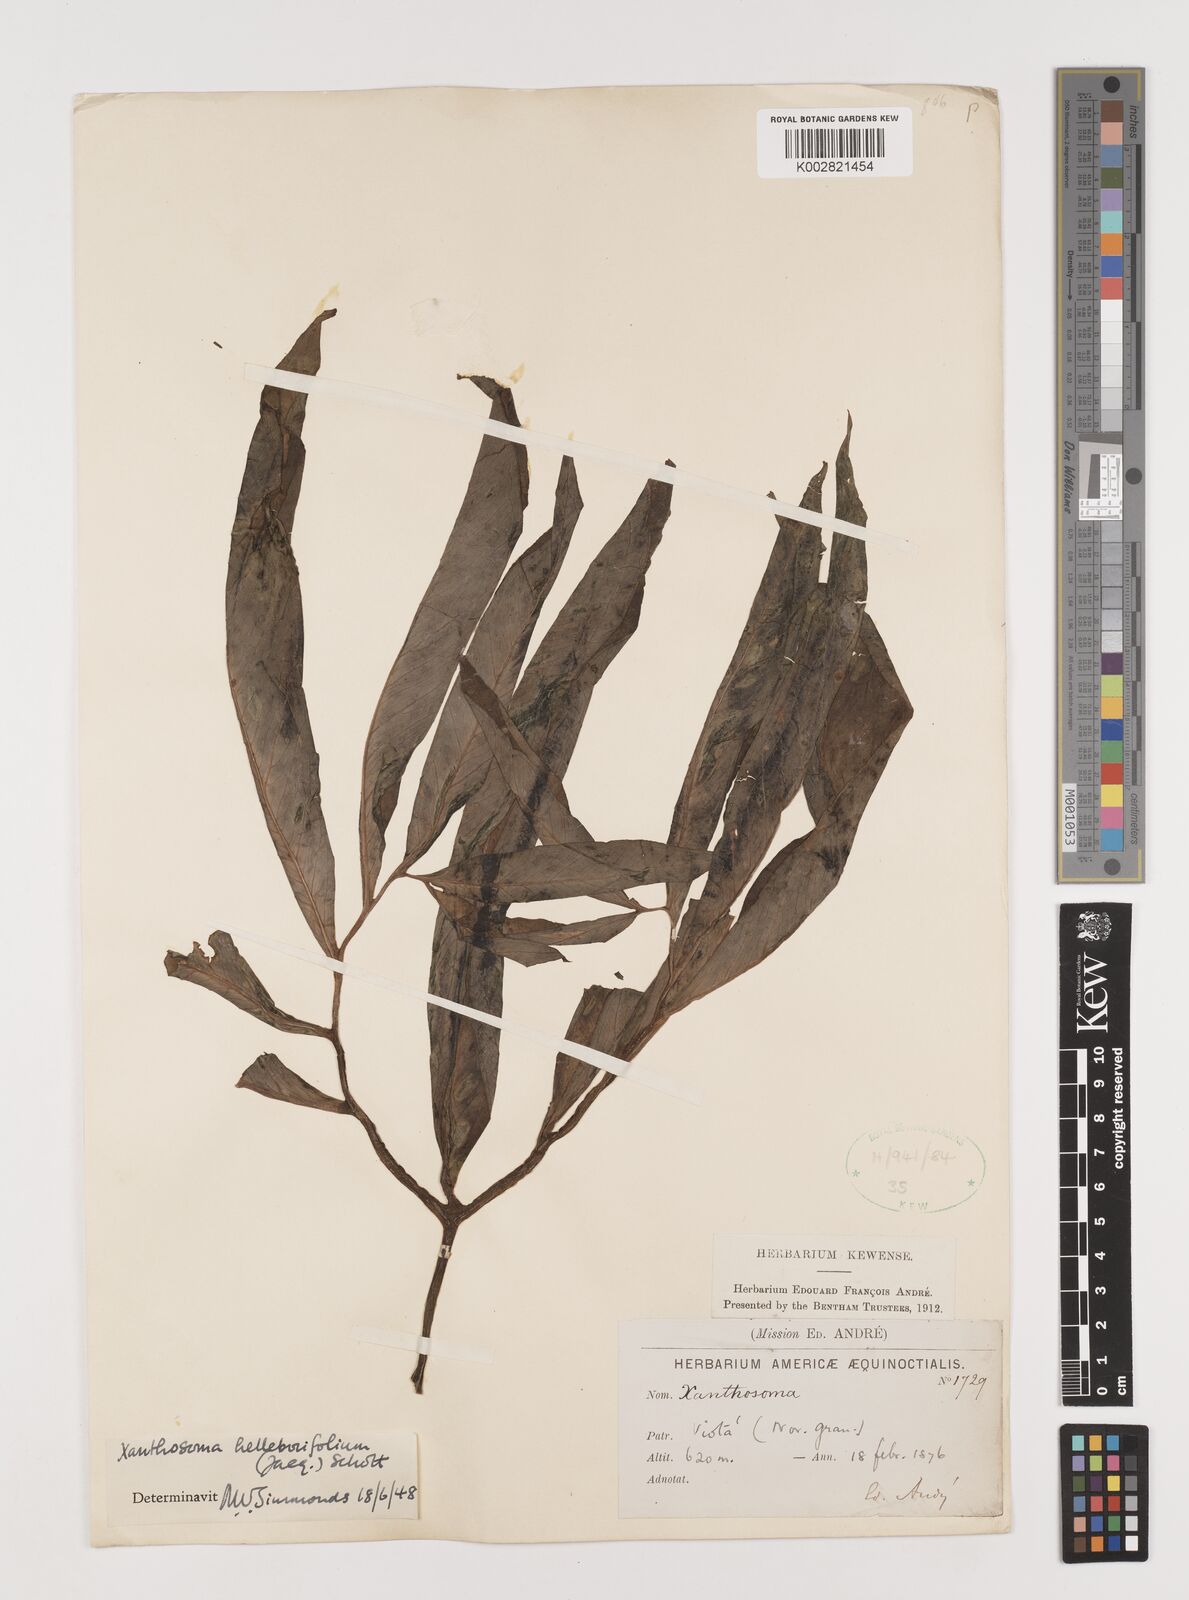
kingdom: Plantae
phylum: Tracheophyta
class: Liliopsida
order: Alismatales
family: Araceae
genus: Xanthosoma
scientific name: Xanthosoma helleborifolium
